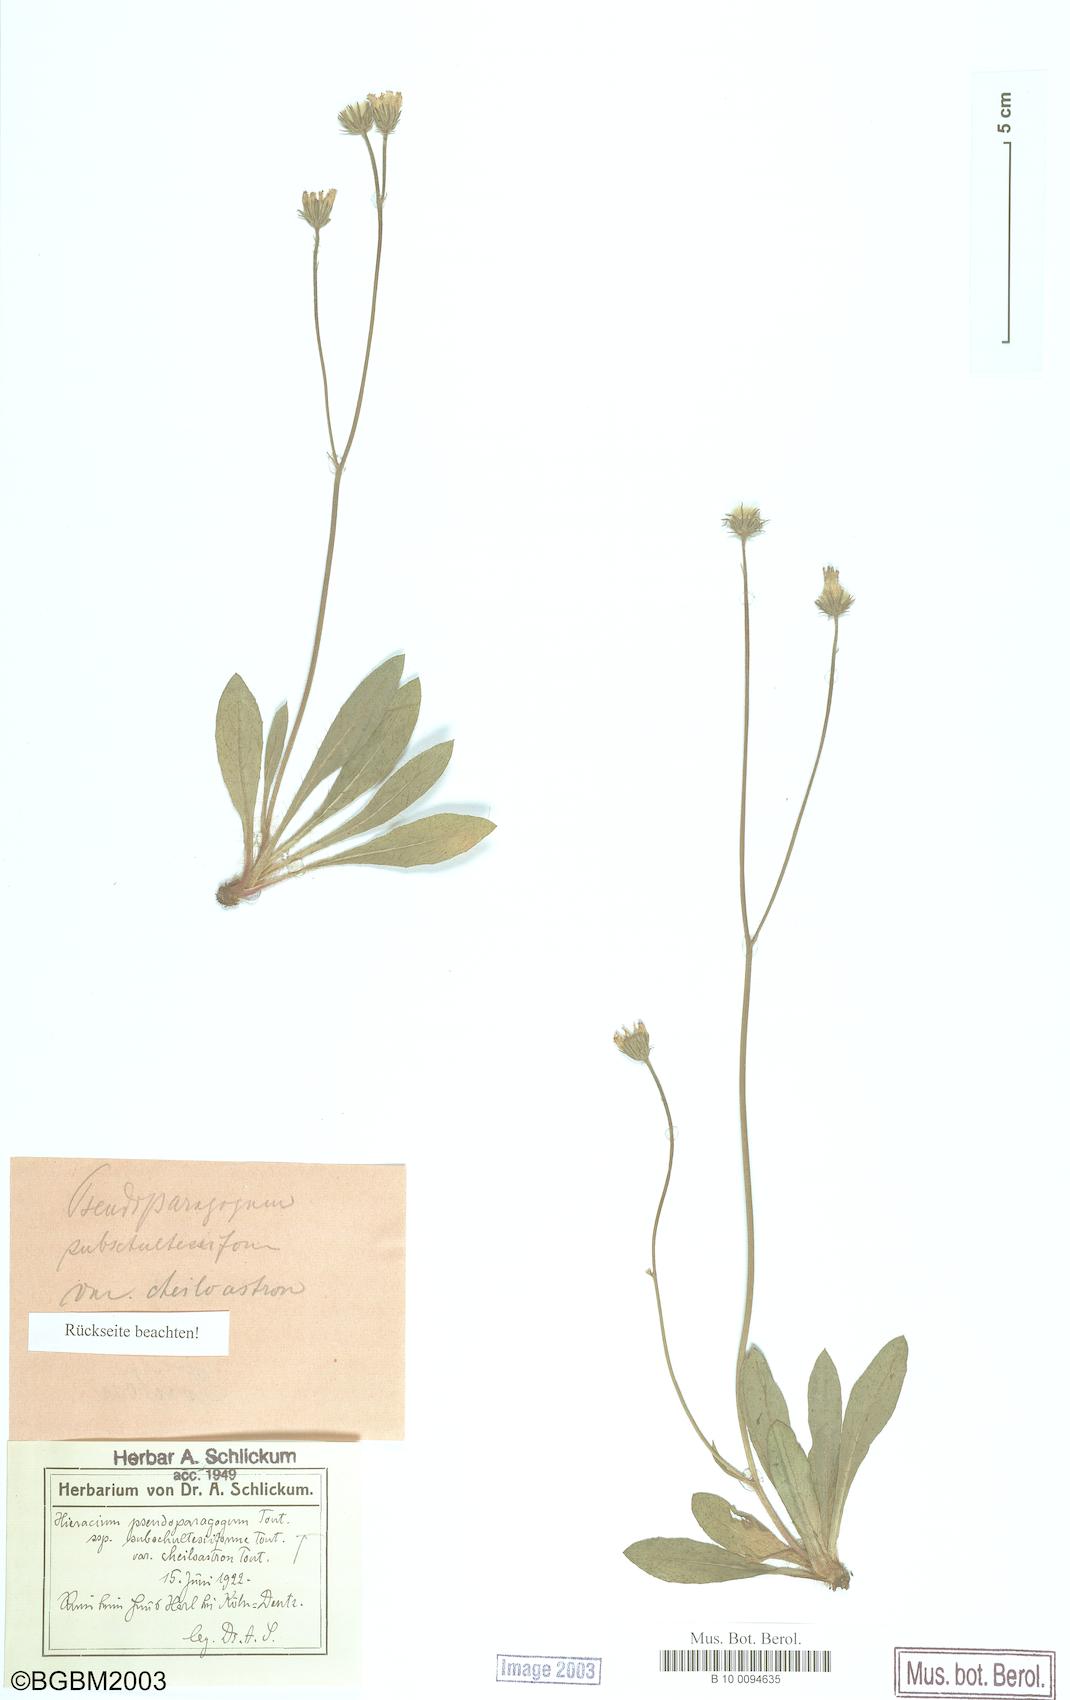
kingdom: Plantae
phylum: Tracheophyta
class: Magnoliopsida
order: Asterales
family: Asteraceae
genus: Pilosella
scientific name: Pilosella pseudoparagoga
